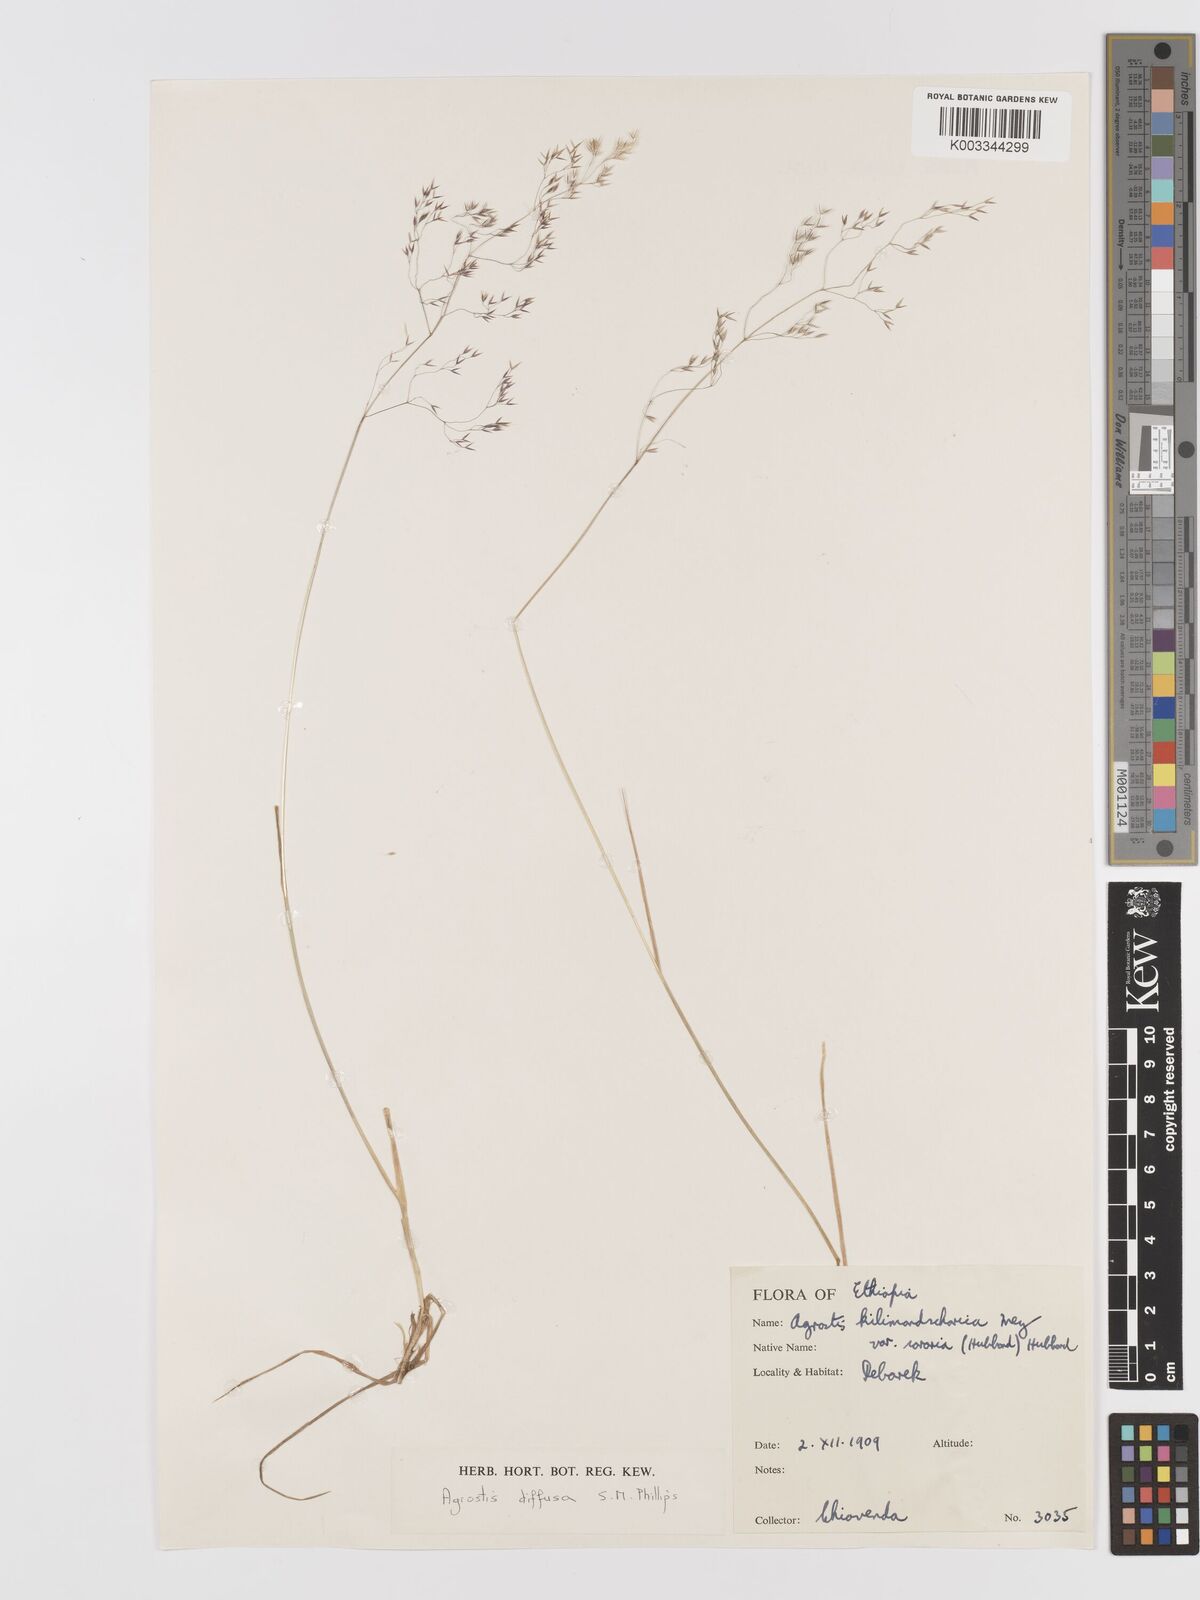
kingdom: Plantae
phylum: Tracheophyta
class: Liliopsida
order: Poales
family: Poaceae
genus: Agrostis
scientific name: Agrostis diffusa
